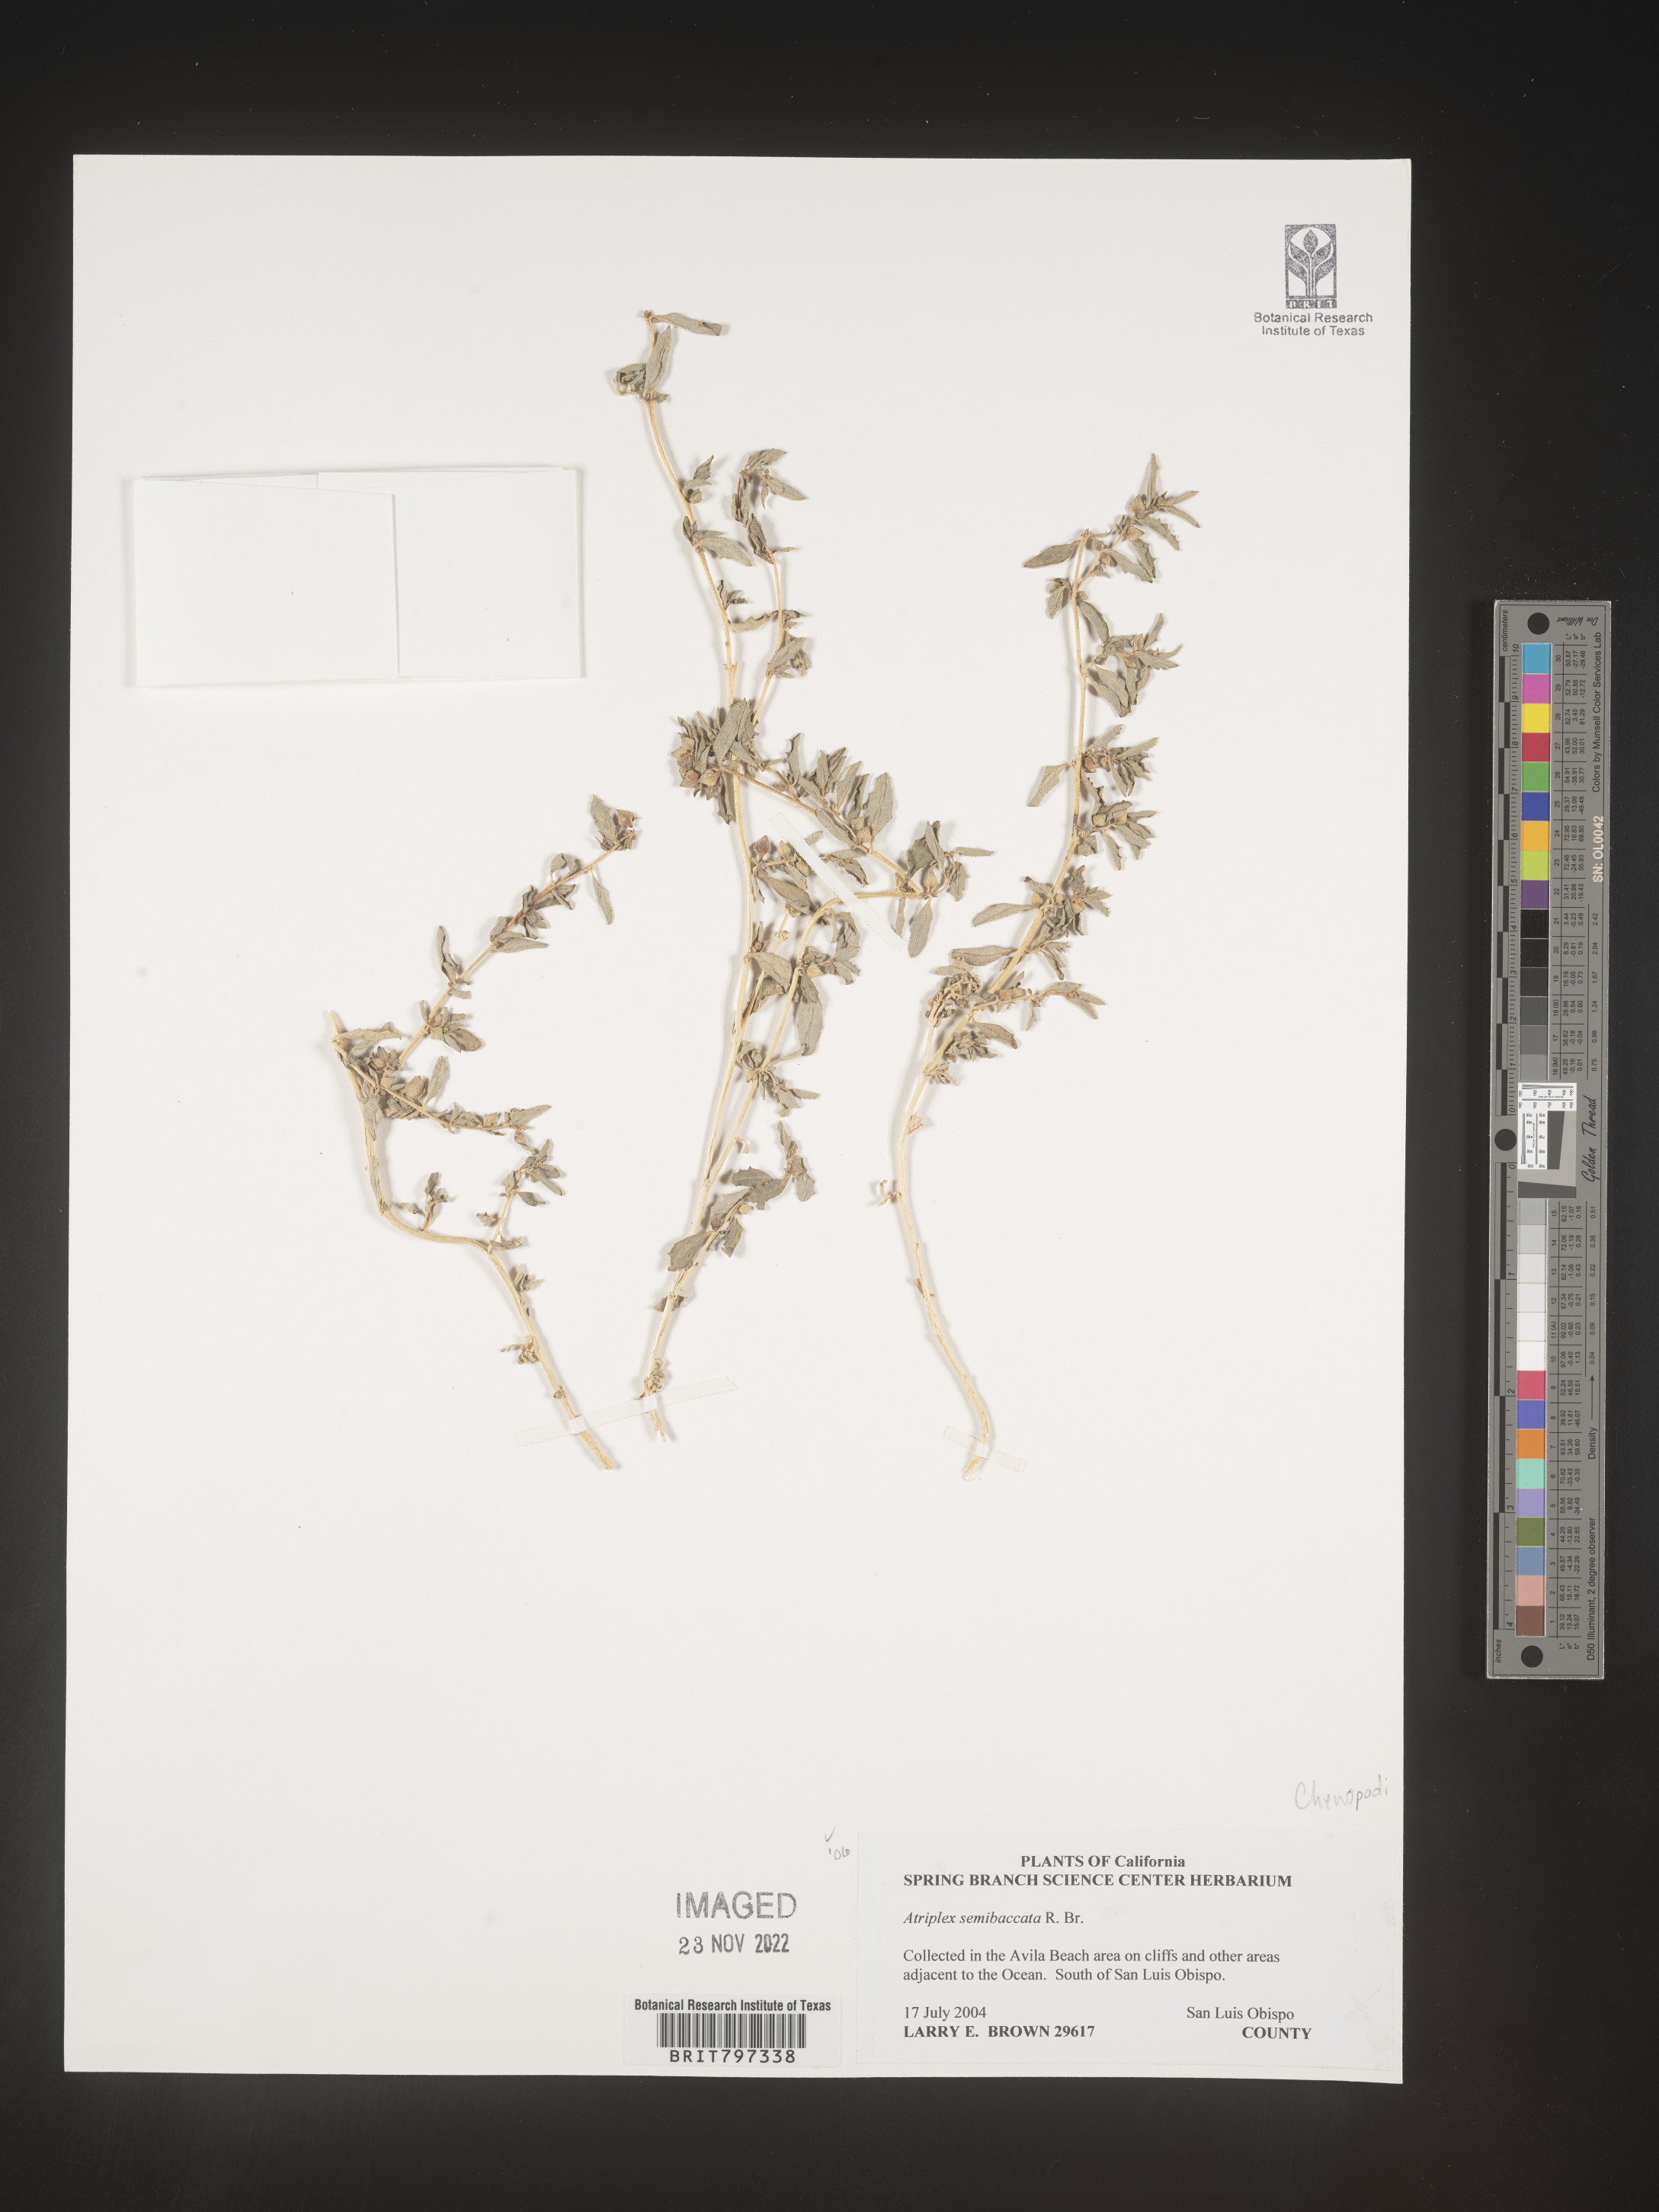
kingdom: Plantae
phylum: Tracheophyta
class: Magnoliopsida
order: Caryophyllales
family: Amaranthaceae
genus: Atriplex
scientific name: Atriplex
